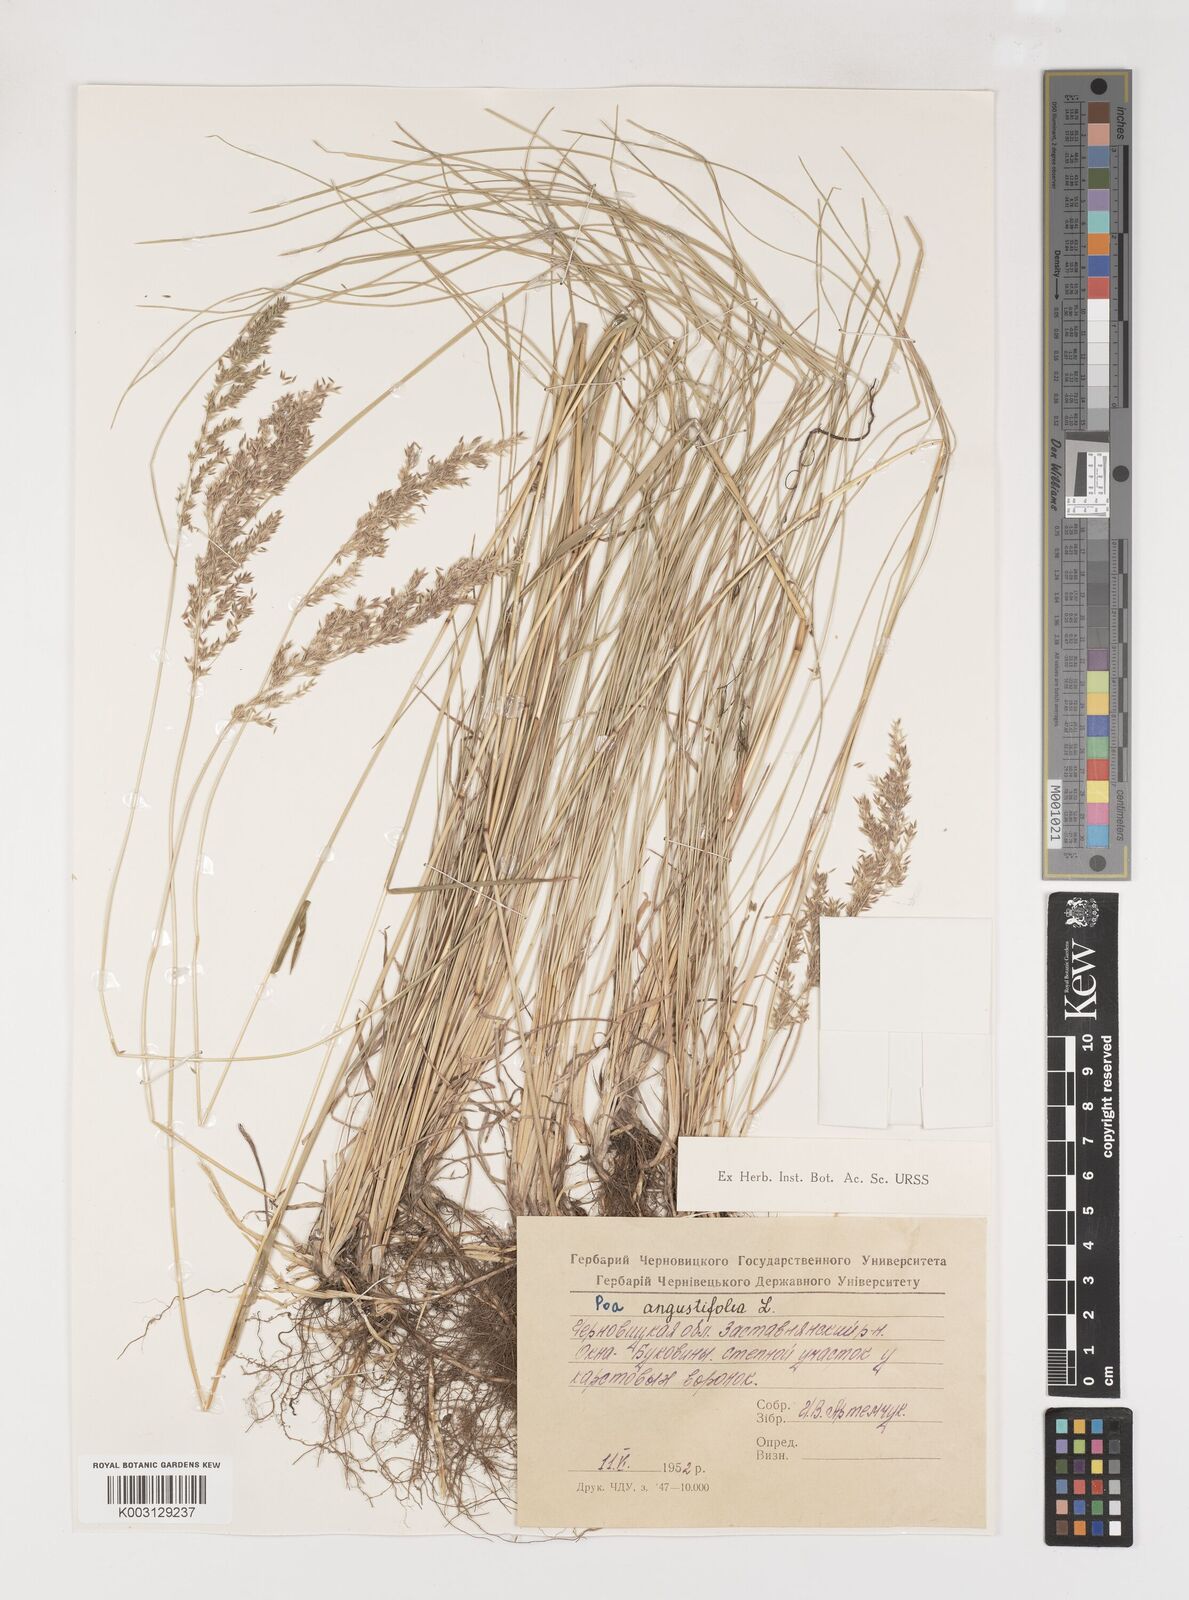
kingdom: Plantae
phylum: Tracheophyta
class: Liliopsida
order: Poales
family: Poaceae
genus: Poa
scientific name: Poa angustifolia
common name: Narrow-leaved meadow-grass
